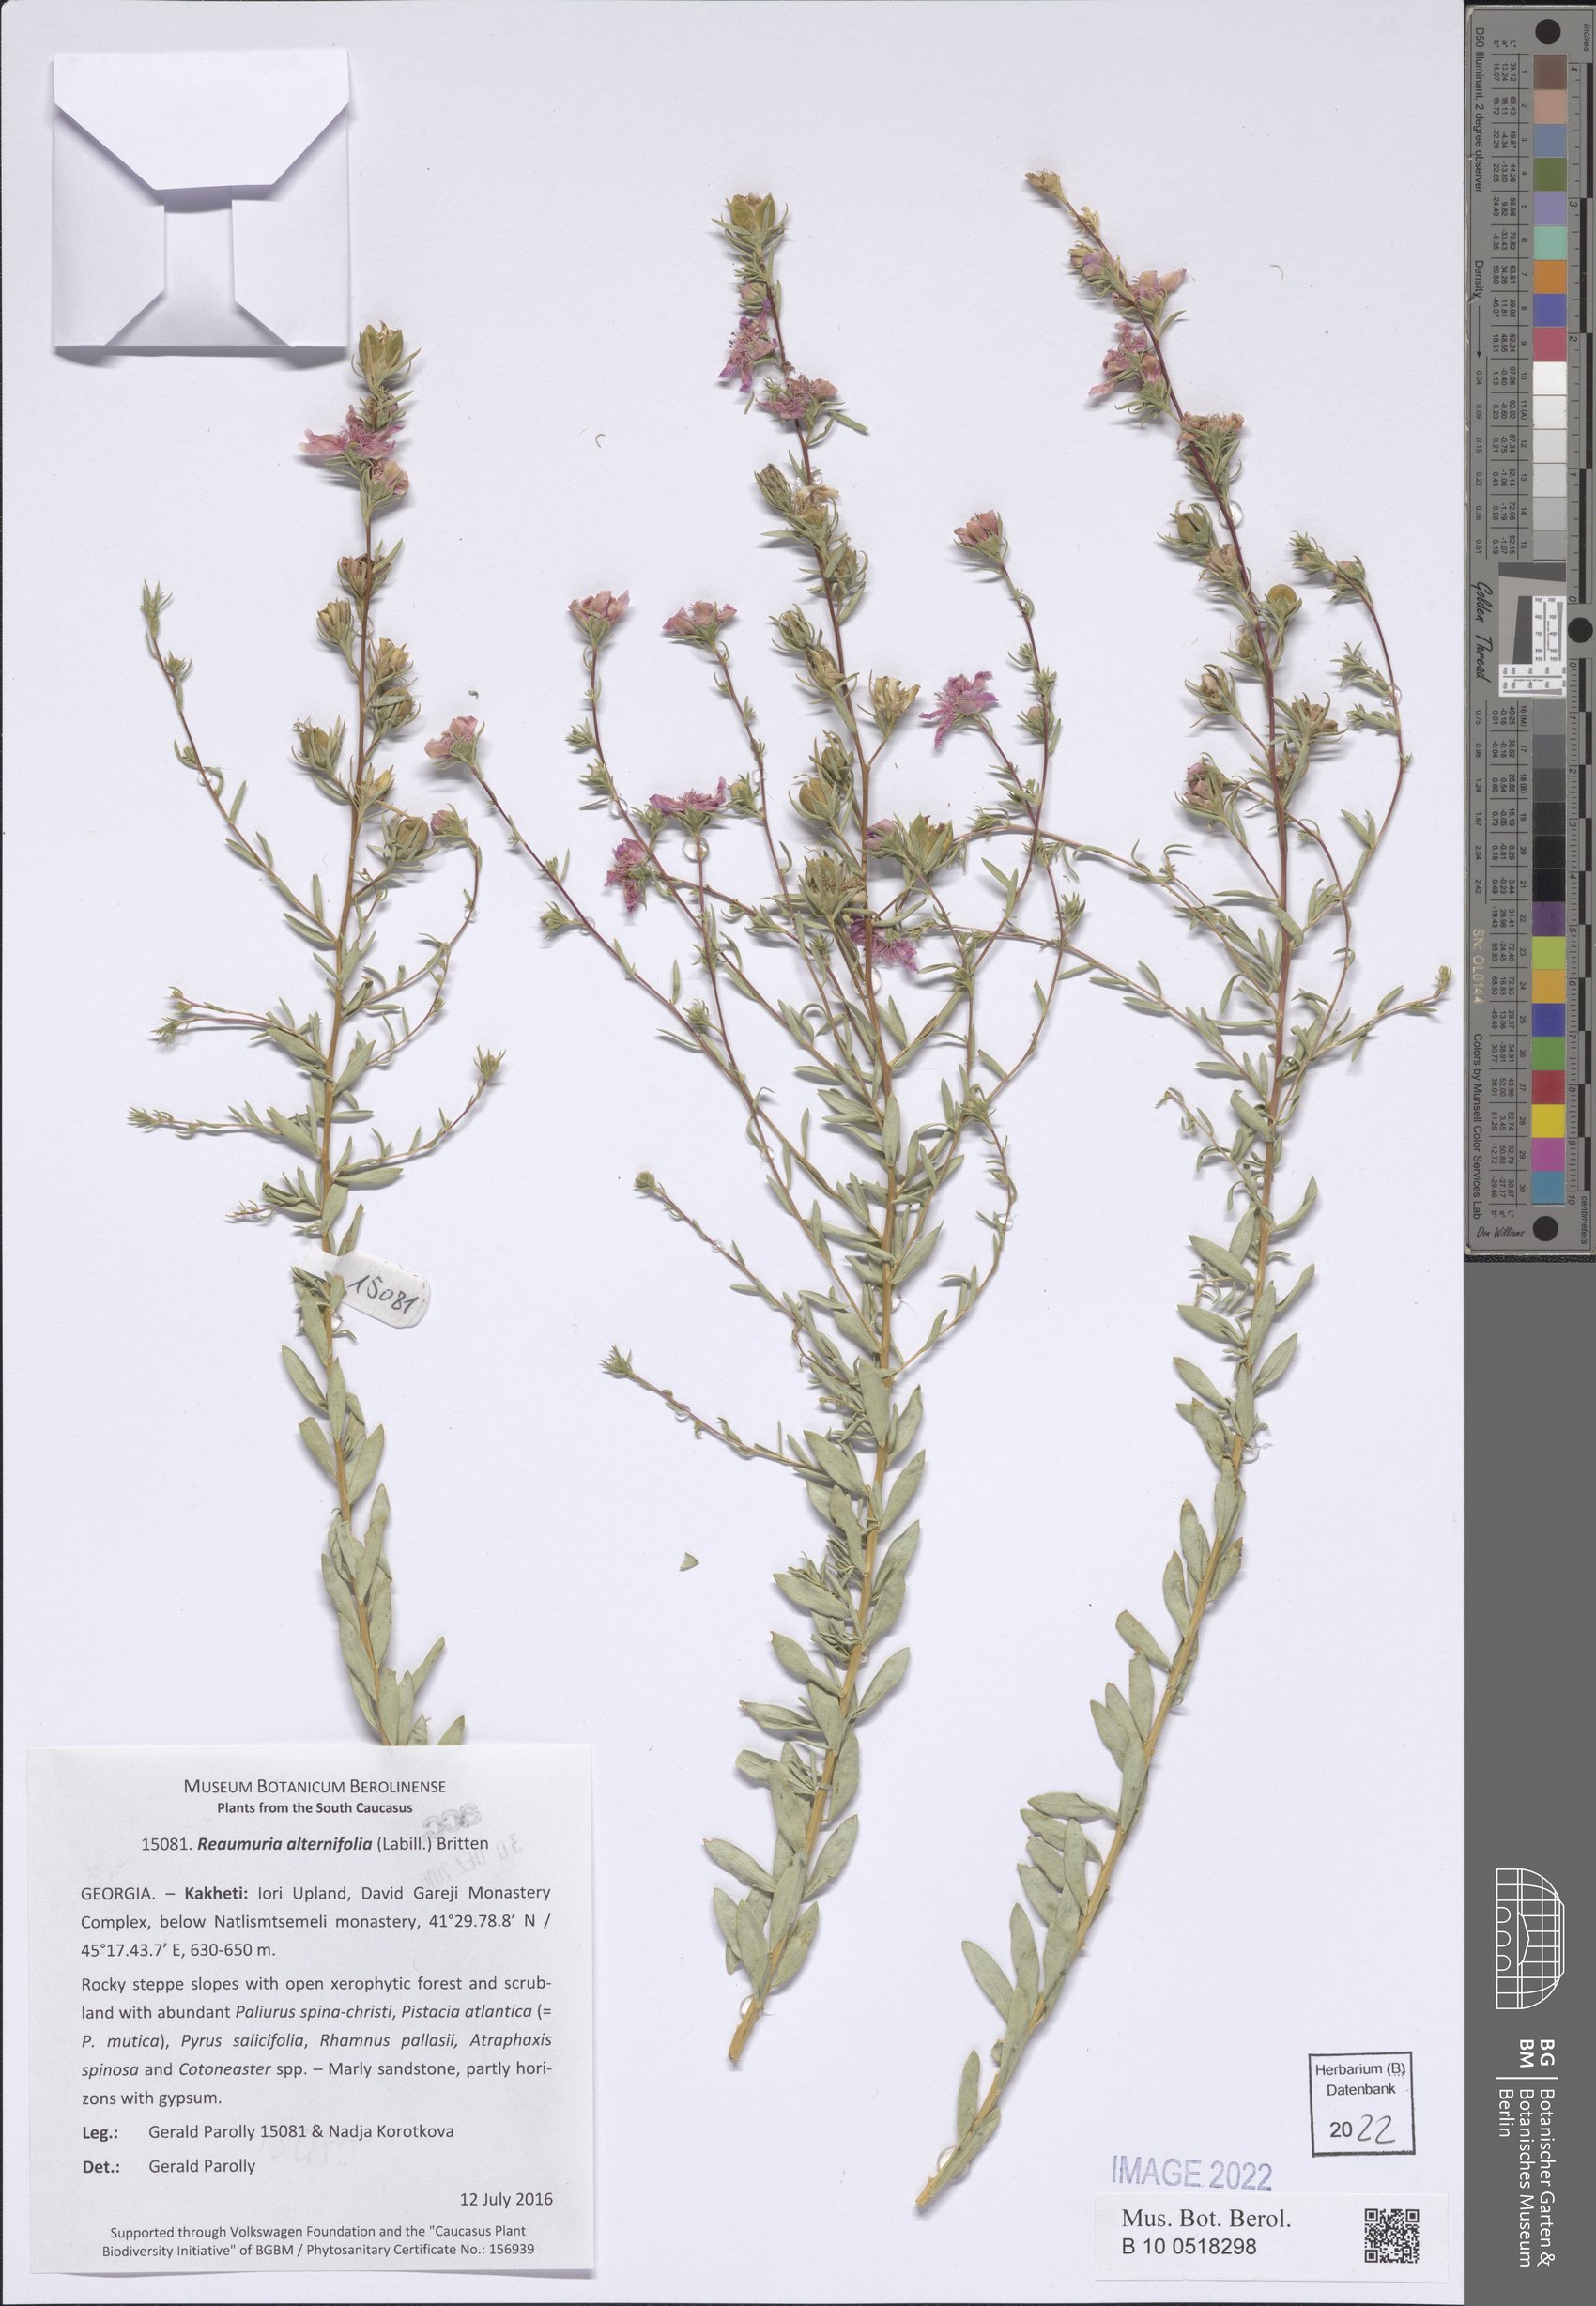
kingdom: Plantae
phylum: Tracheophyta
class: Magnoliopsida
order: Caryophyllales
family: Tamaricaceae
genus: Reaumuria
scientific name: Reaumuria alternifolia
